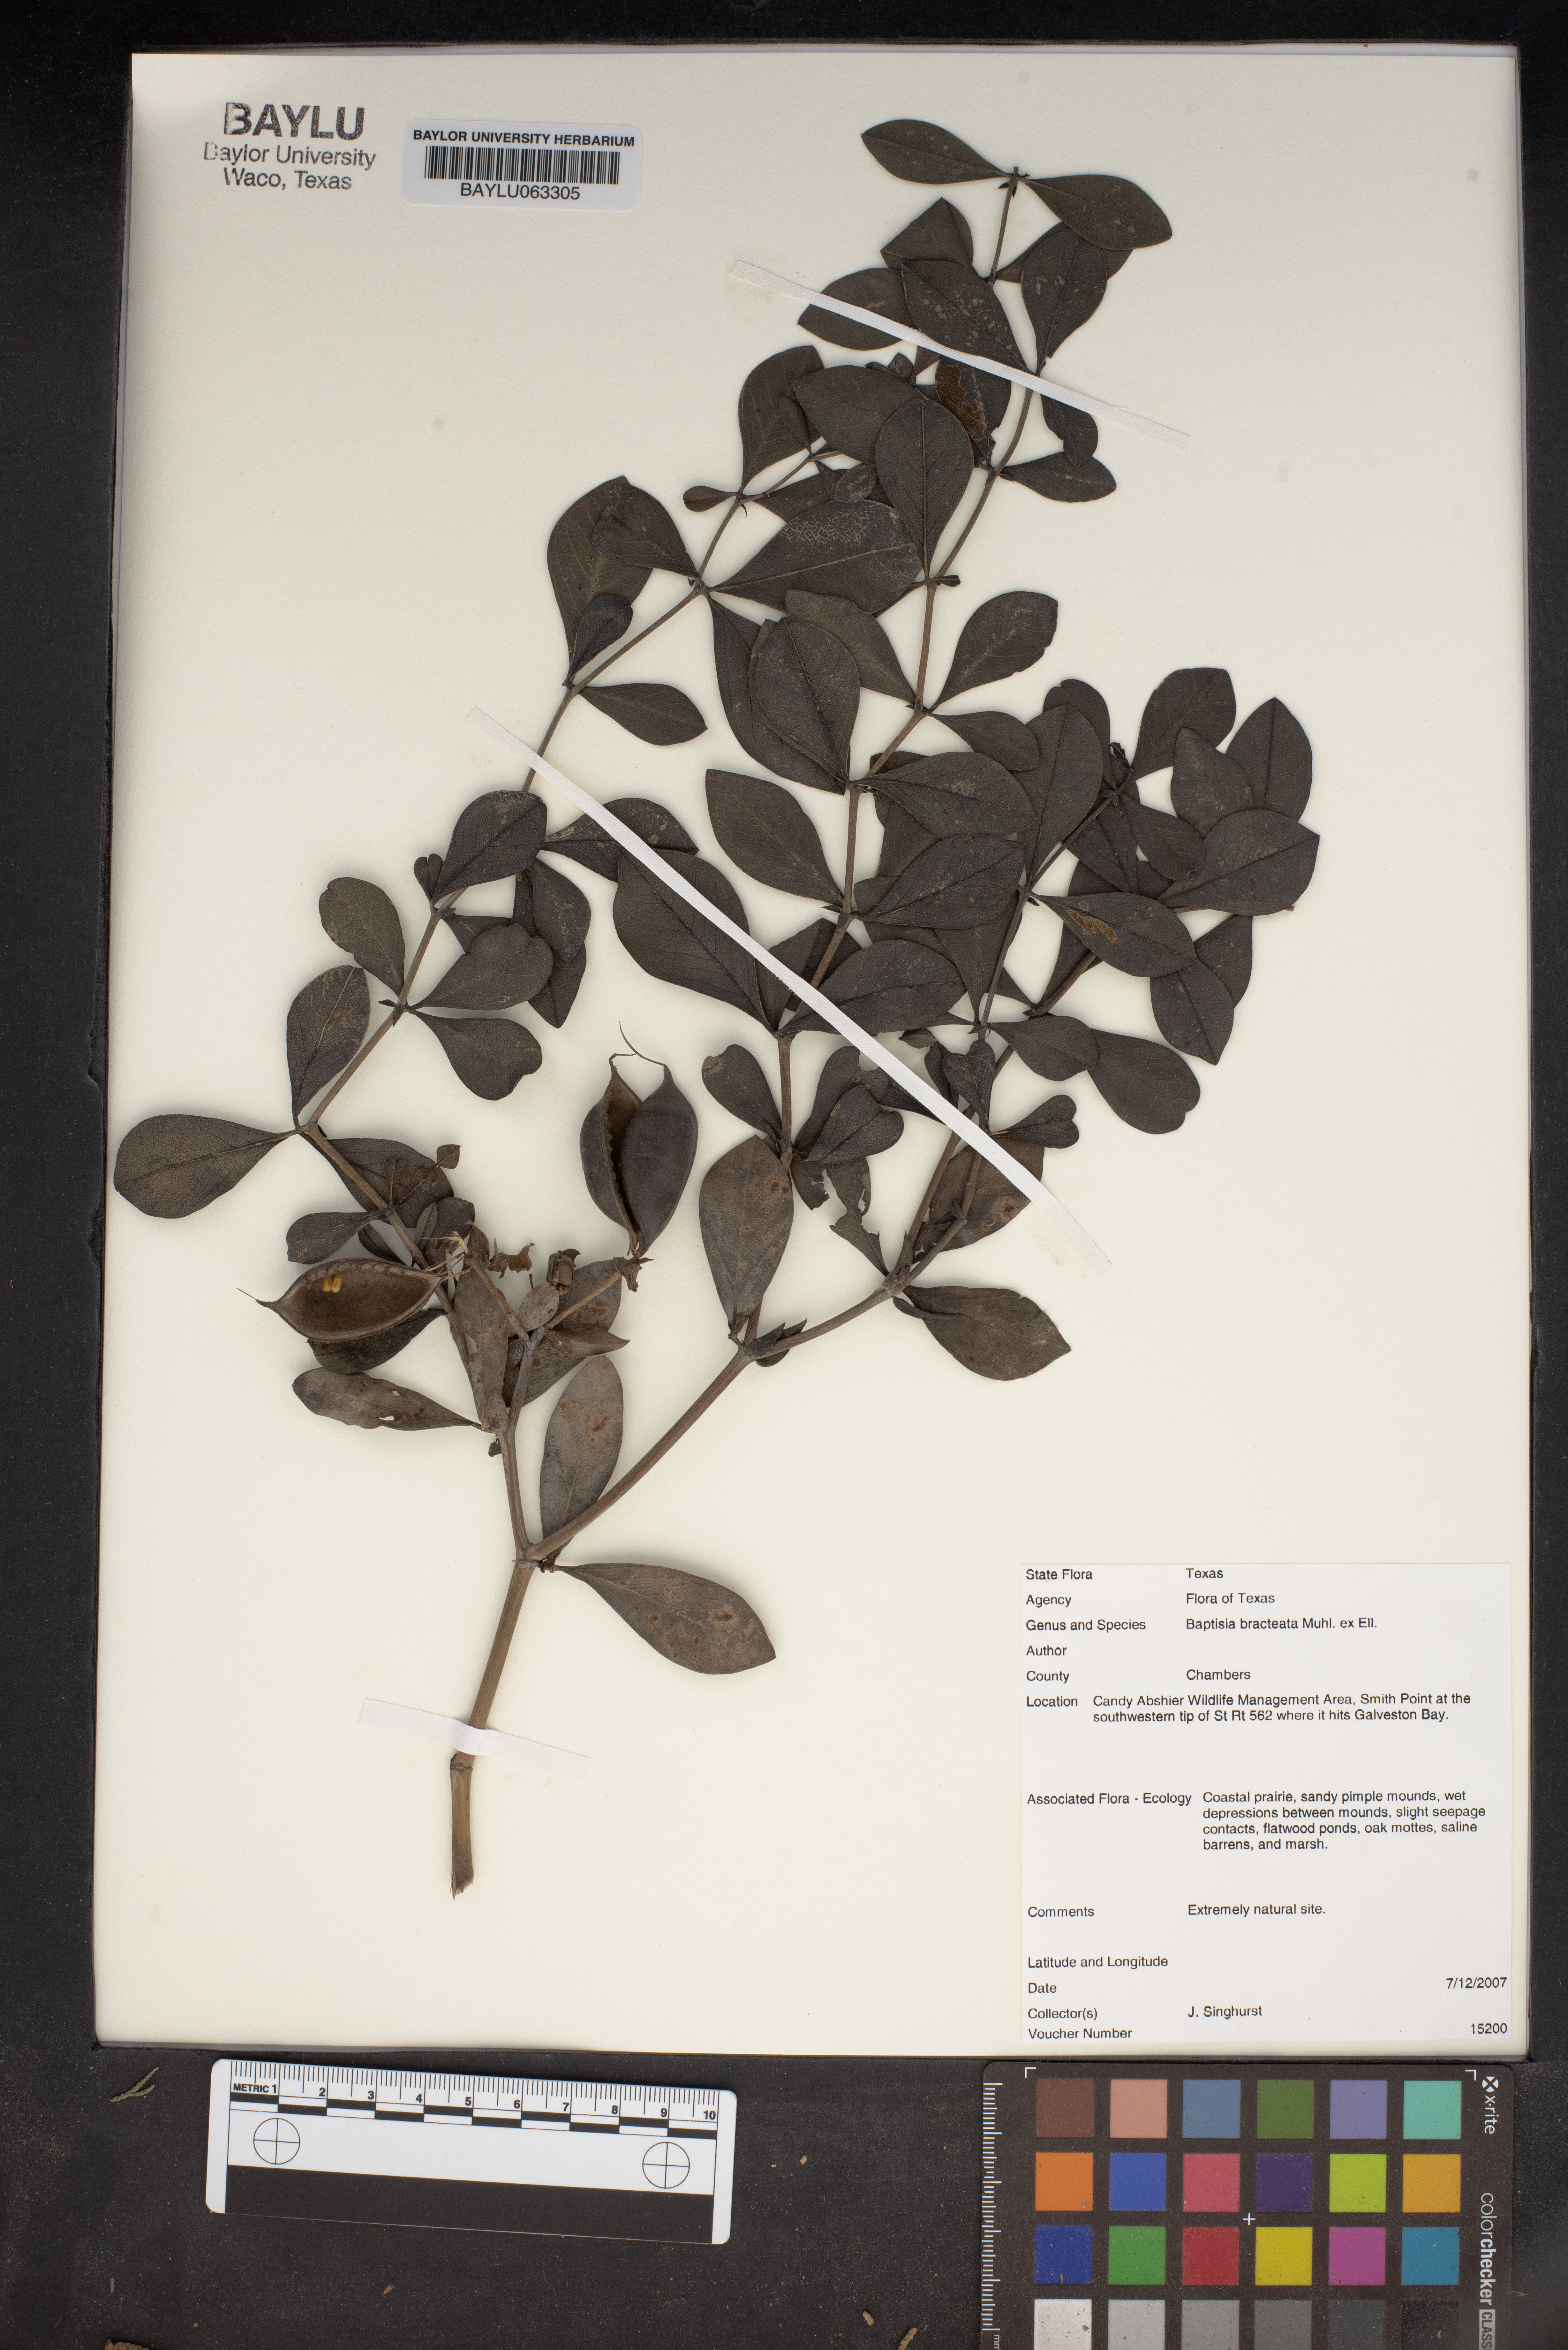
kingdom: Plantae
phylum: Tracheophyta
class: Magnoliopsida
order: Fabales
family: Fabaceae
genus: Baptisia
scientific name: Baptisia bracteata
